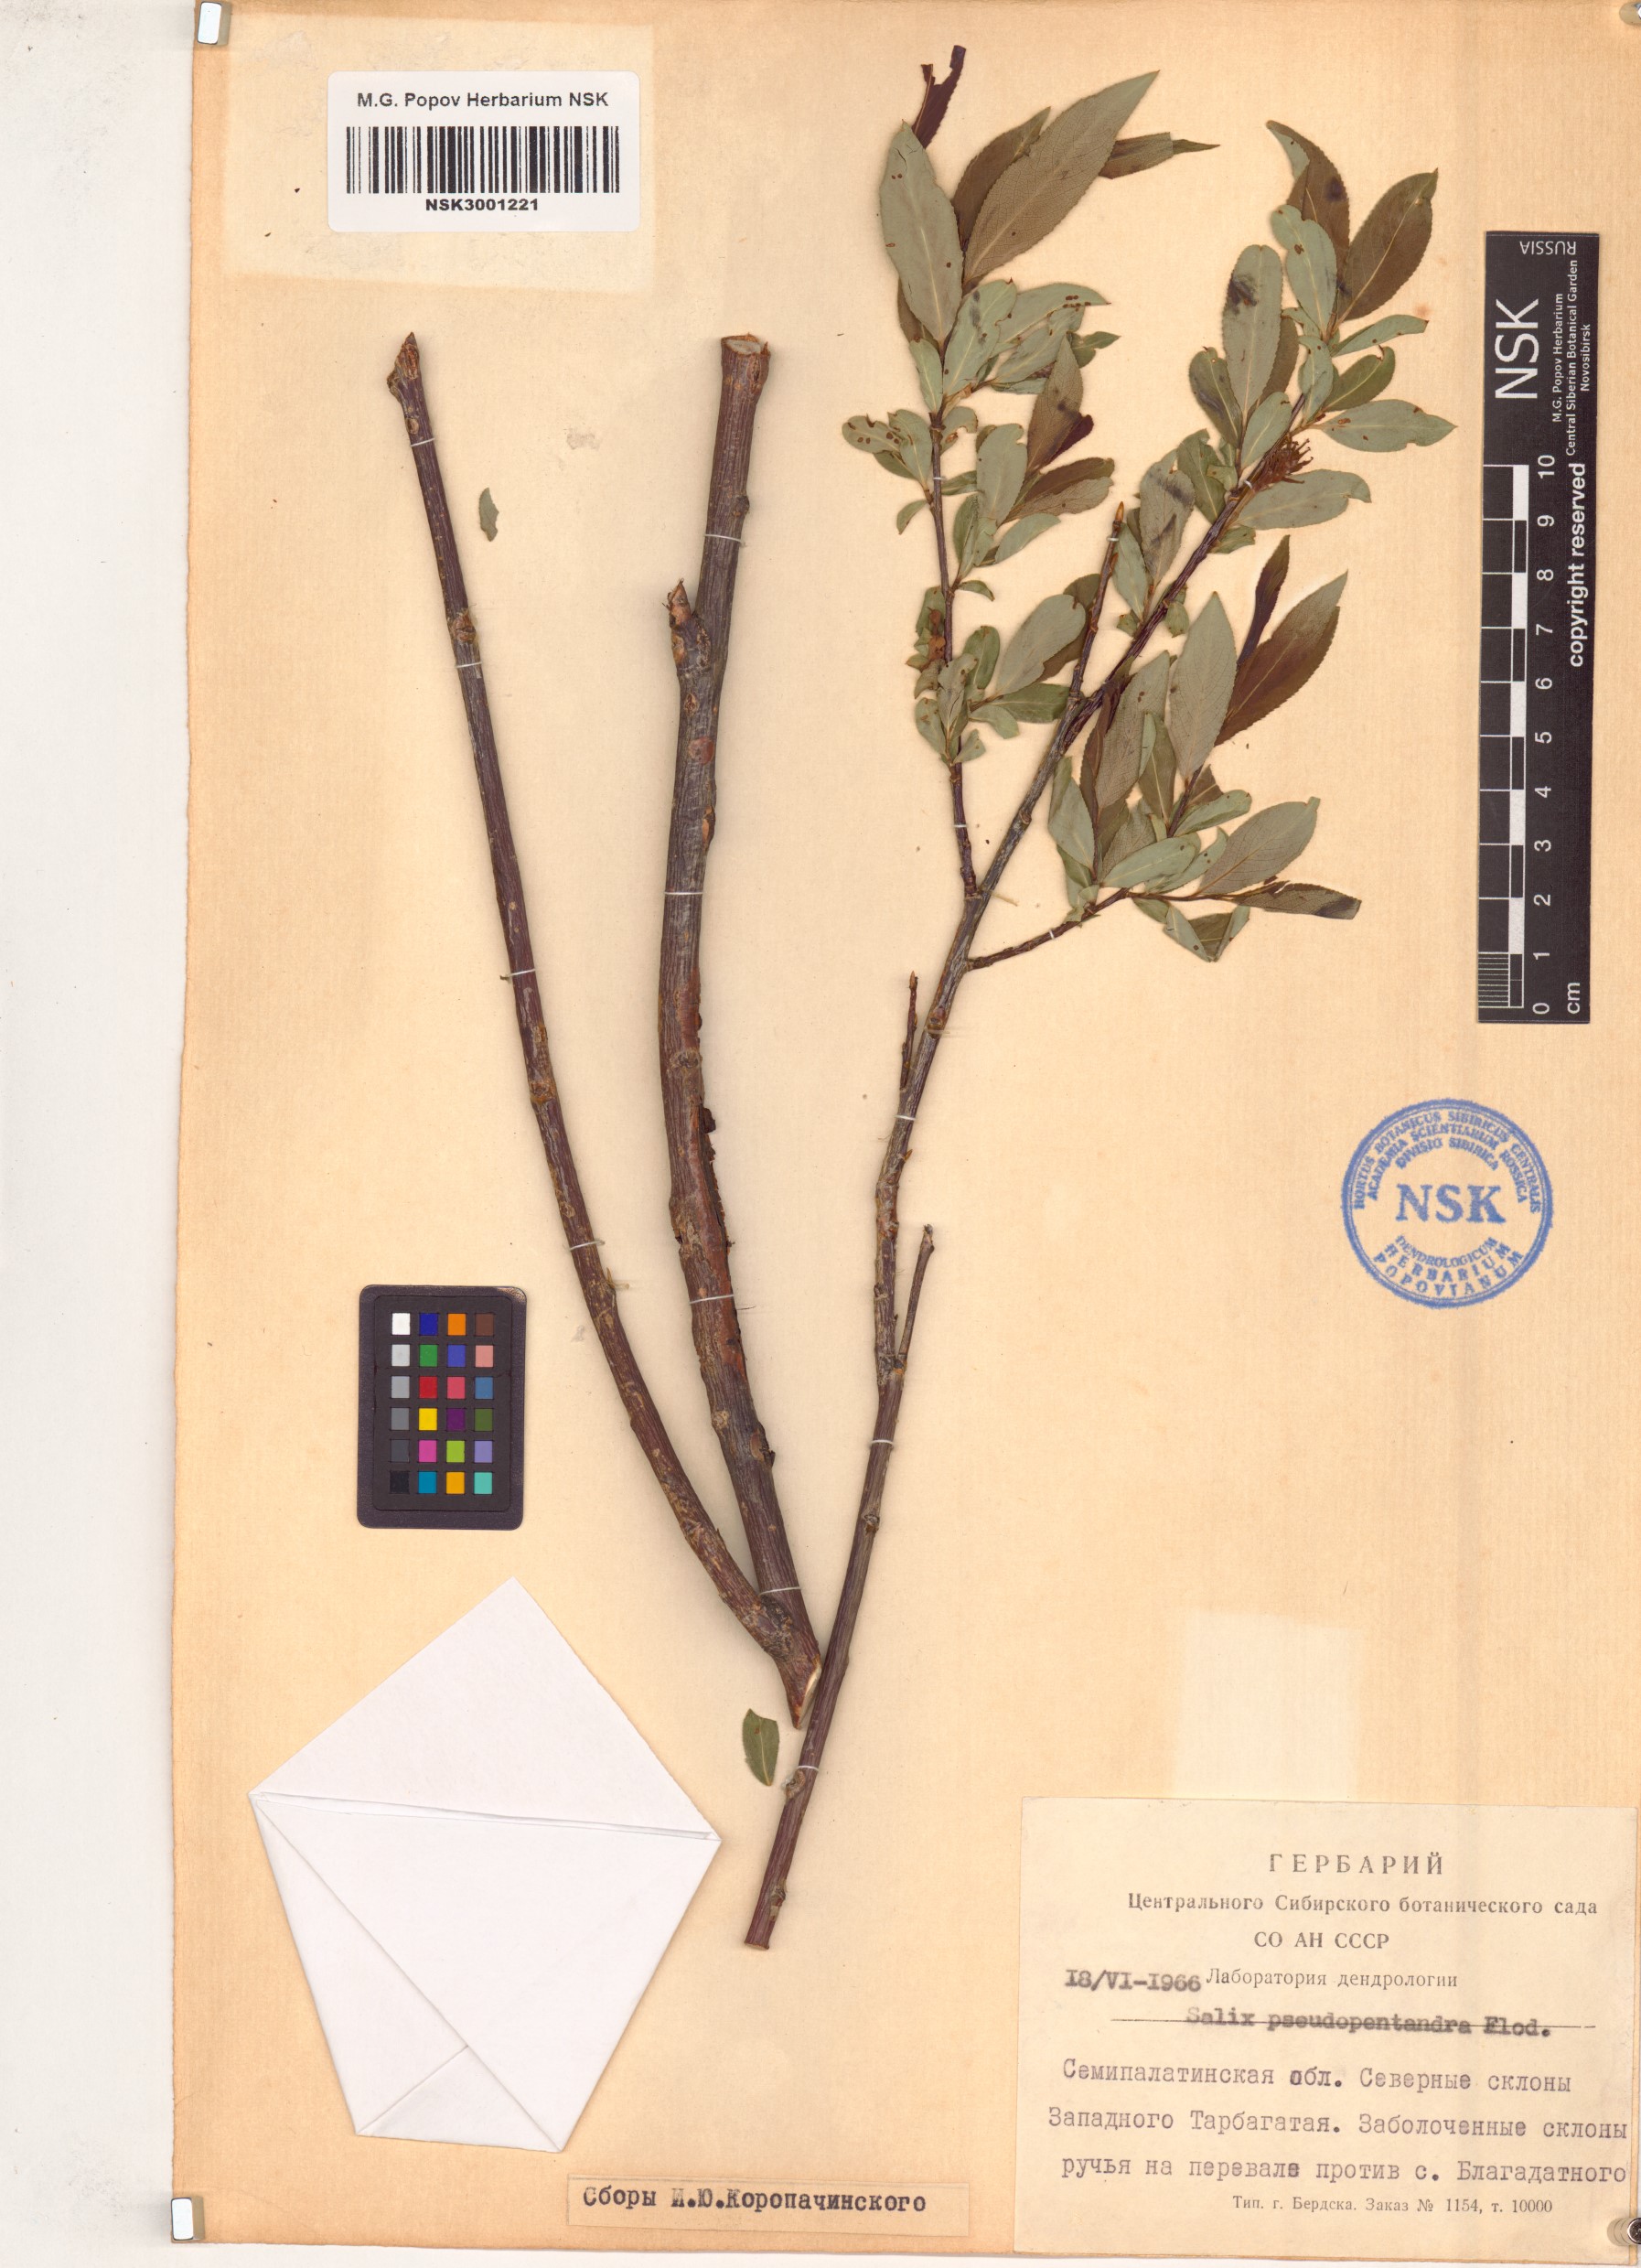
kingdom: Plantae
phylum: Tracheophyta
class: Magnoliopsida
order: Malpighiales
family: Salicaceae
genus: Salix
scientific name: Salix pseudopentandra
